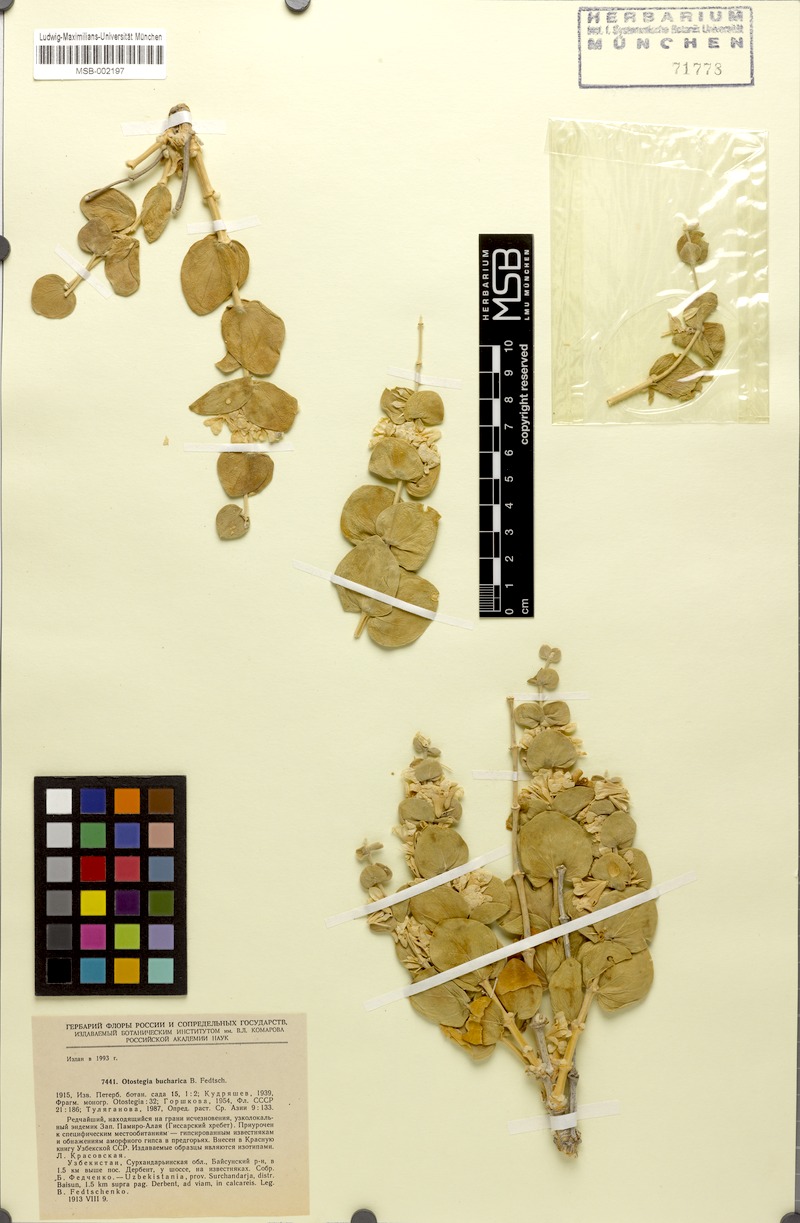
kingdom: Plantae
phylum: Tracheophyta
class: Magnoliopsida
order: Lamiales
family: Lamiaceae
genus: Moluccella
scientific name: Moluccella bucharica
